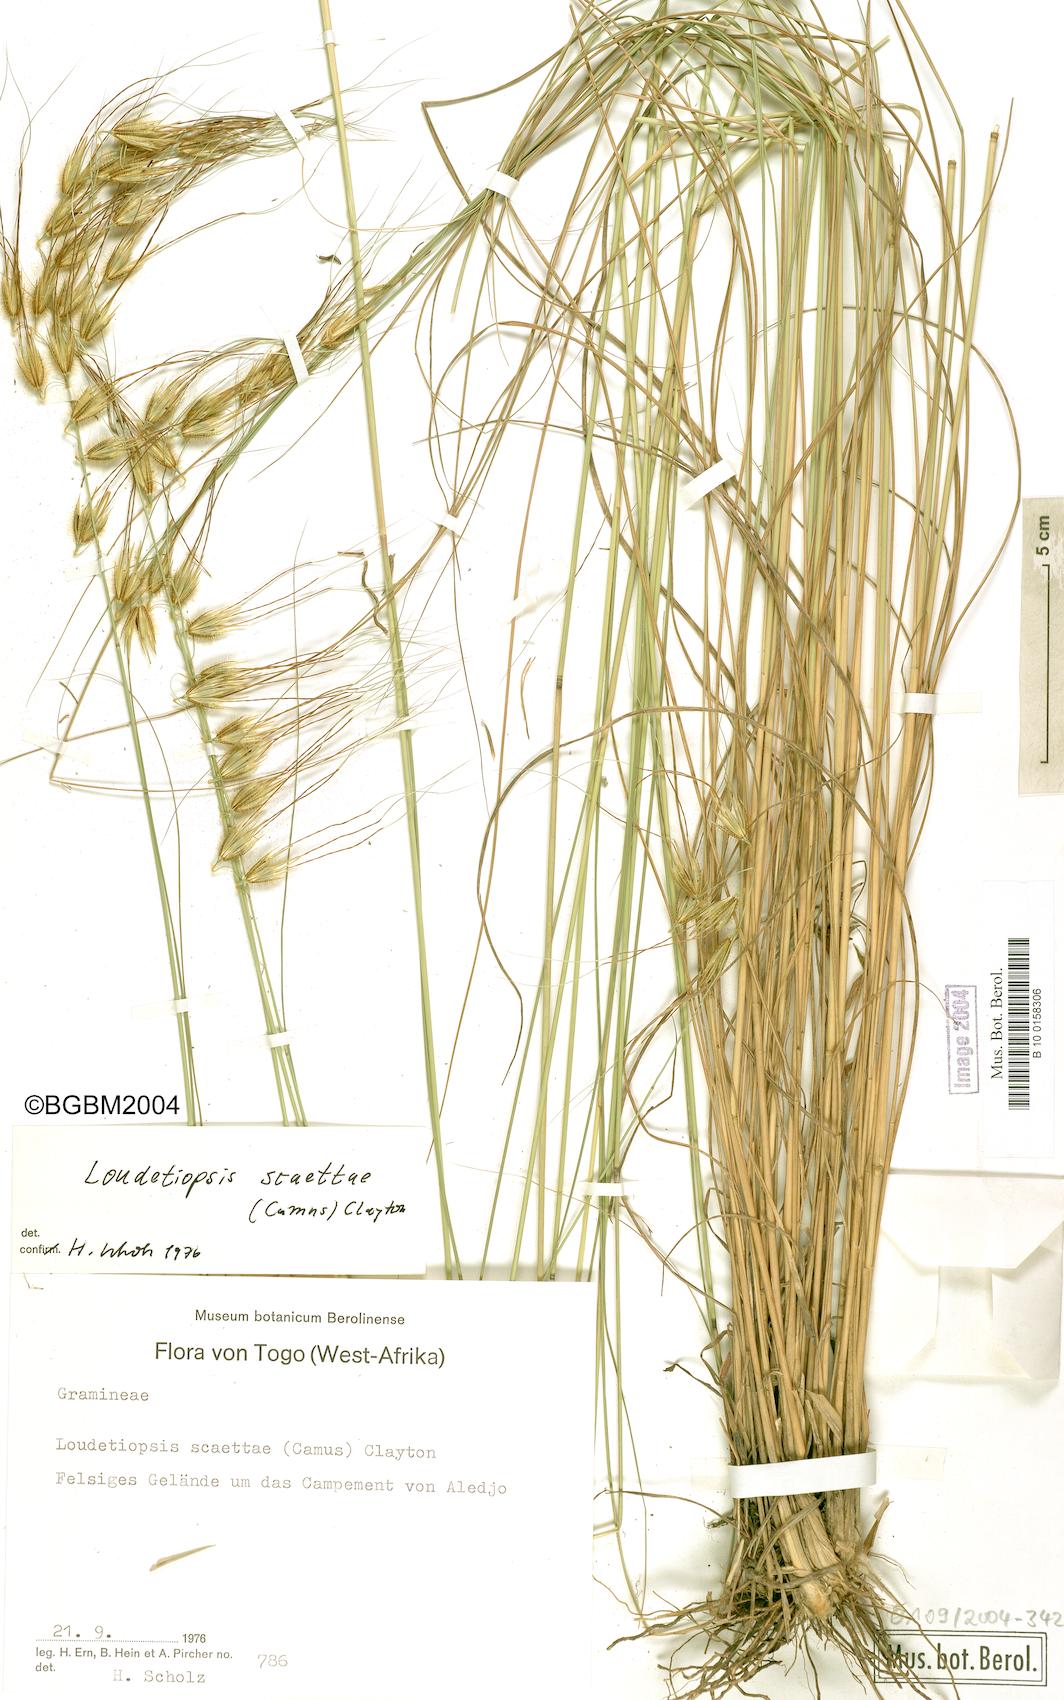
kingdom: Plantae
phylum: Tracheophyta
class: Liliopsida
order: Poales
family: Poaceae
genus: Loudetiopsis
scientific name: Loudetiopsis scaettae
